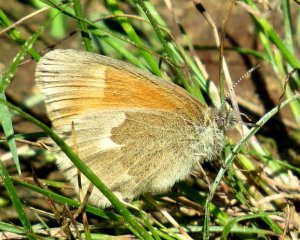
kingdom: Animalia
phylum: Arthropoda
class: Insecta
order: Lepidoptera
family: Nymphalidae
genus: Coenonympha
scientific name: Coenonympha tullia
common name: Large Heath
